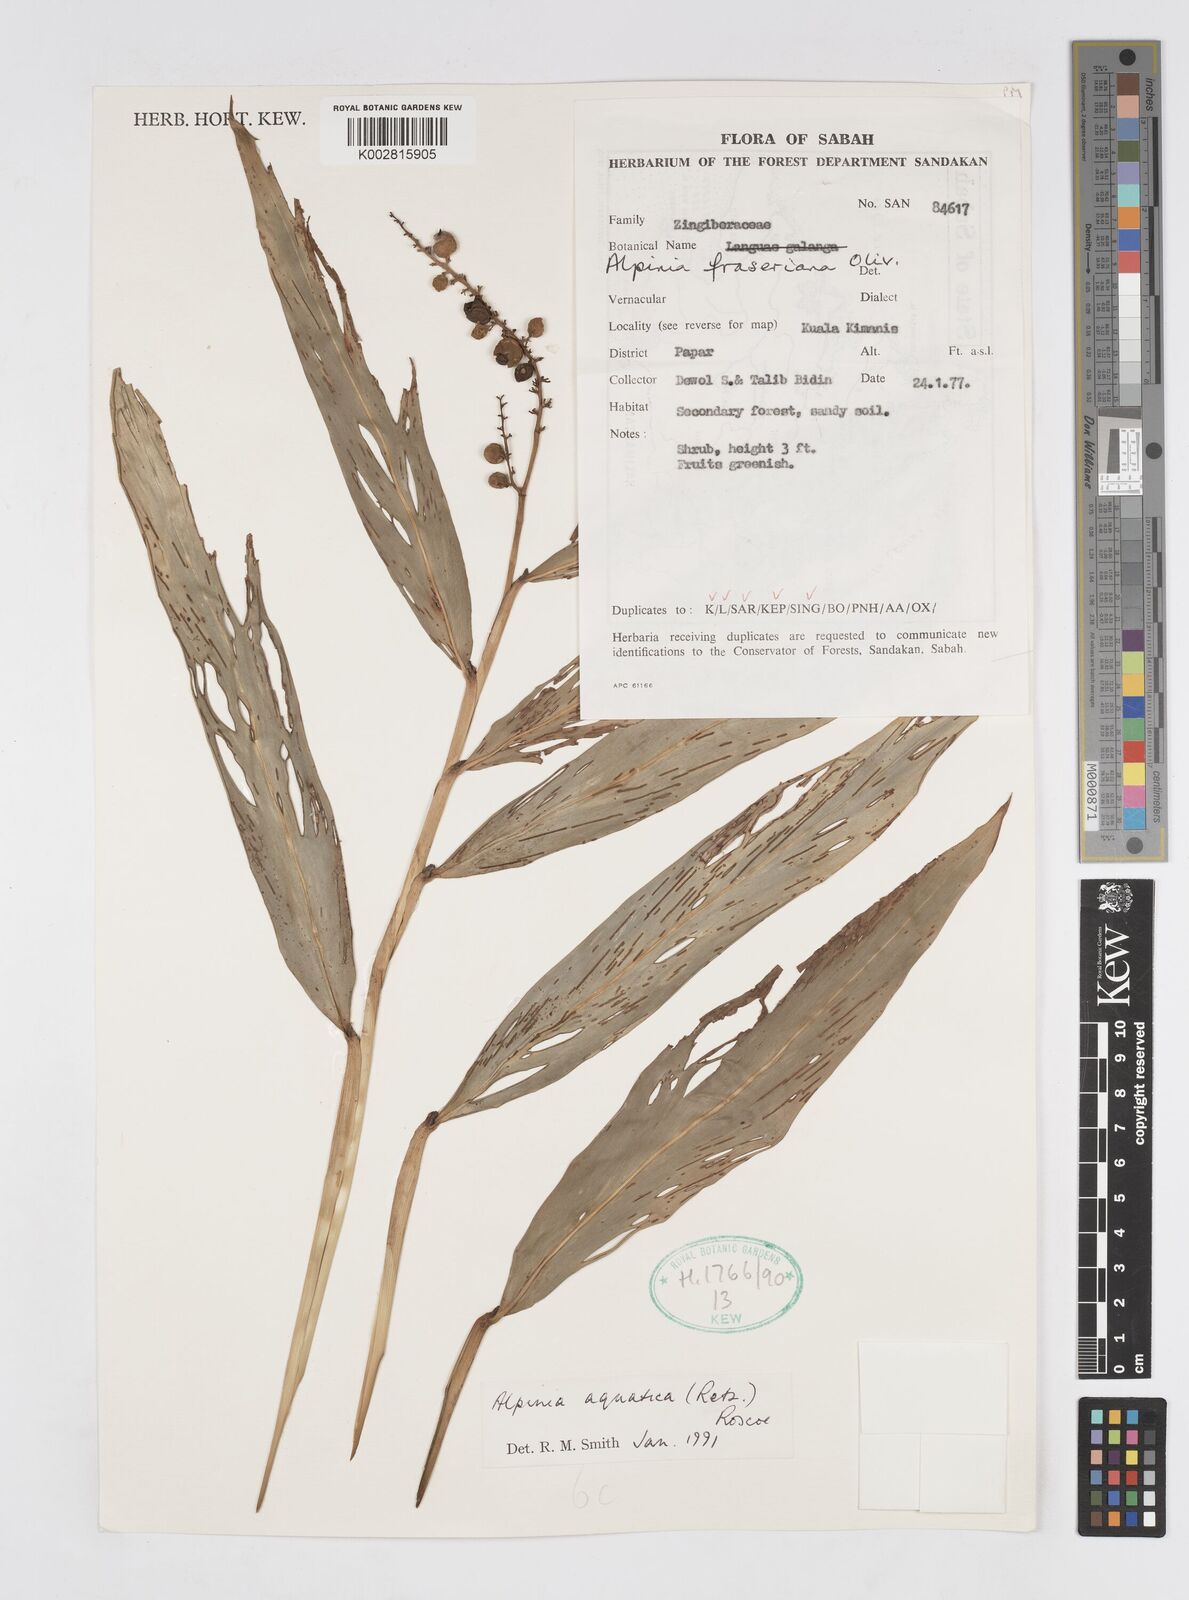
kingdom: Plantae
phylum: Tracheophyta
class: Liliopsida
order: Zingiberales
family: Zingiberaceae
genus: Alpinia
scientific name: Alpinia aquatica
